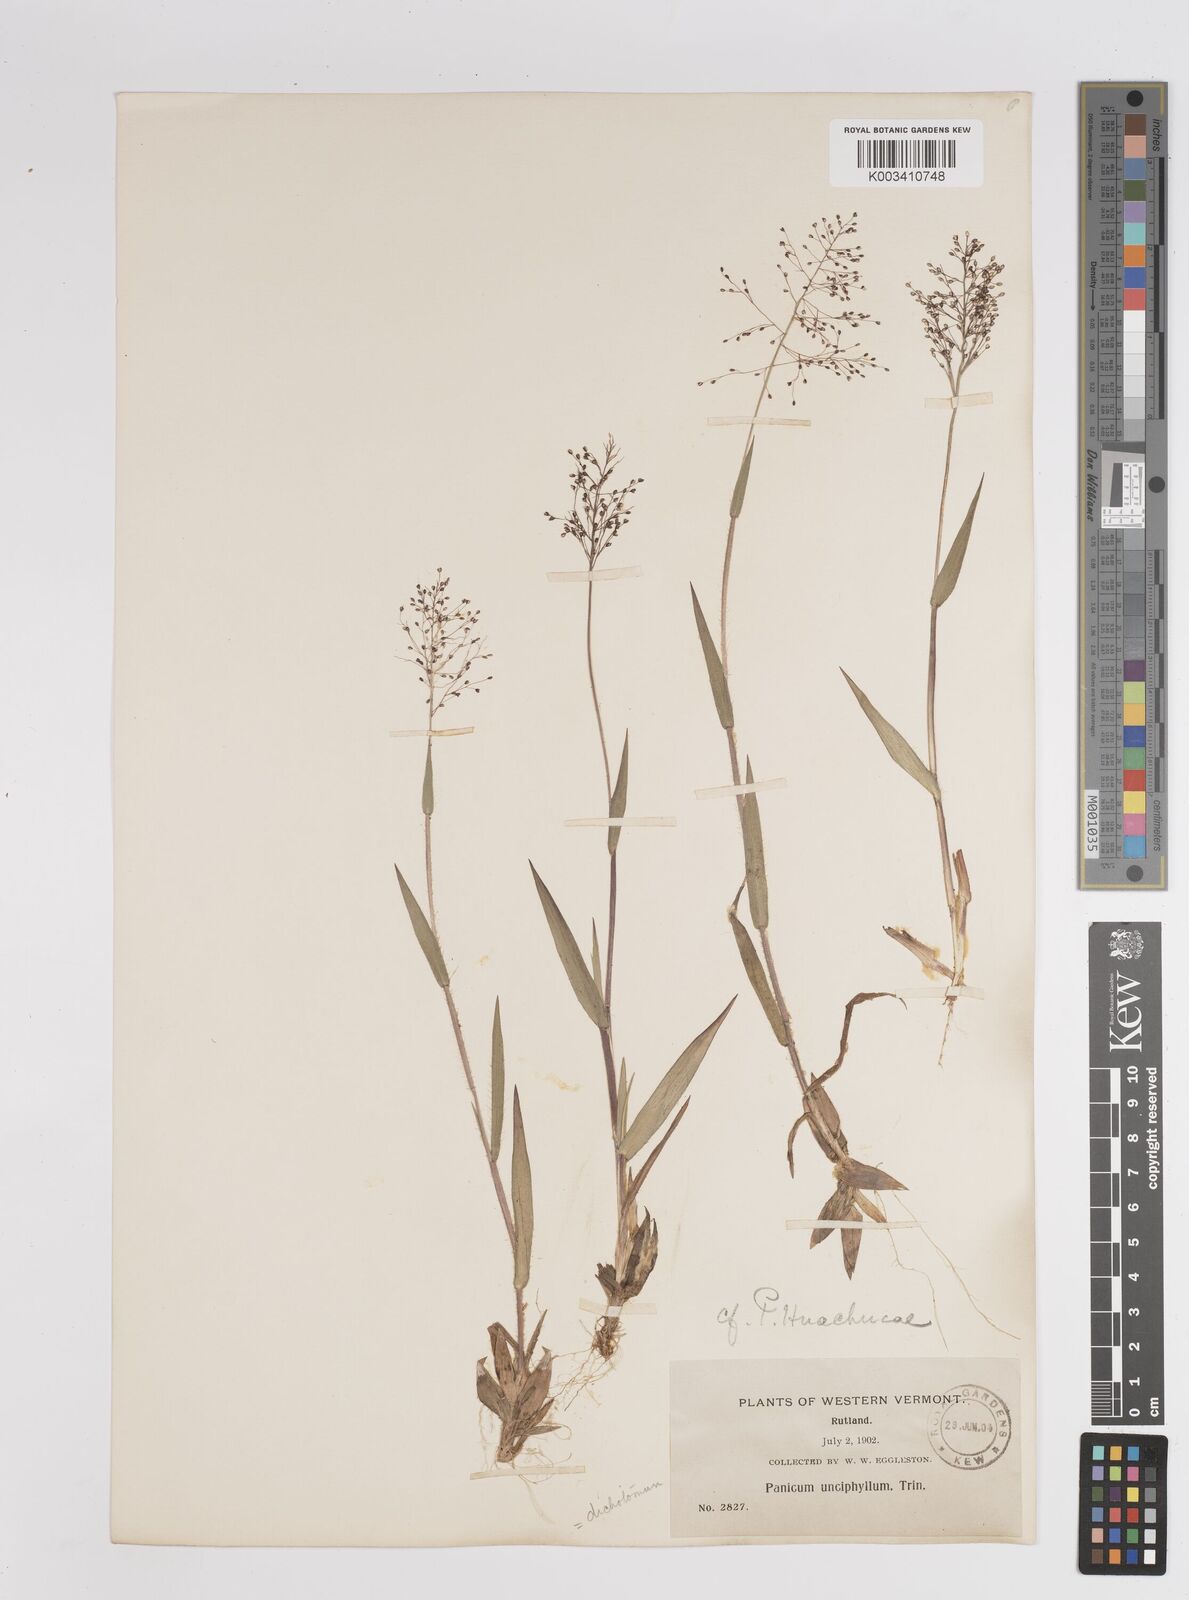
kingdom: Plantae
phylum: Tracheophyta
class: Liliopsida
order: Poales
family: Poaceae
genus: Dichanthelium
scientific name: Dichanthelium acuminatum
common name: Hairy panic grass
